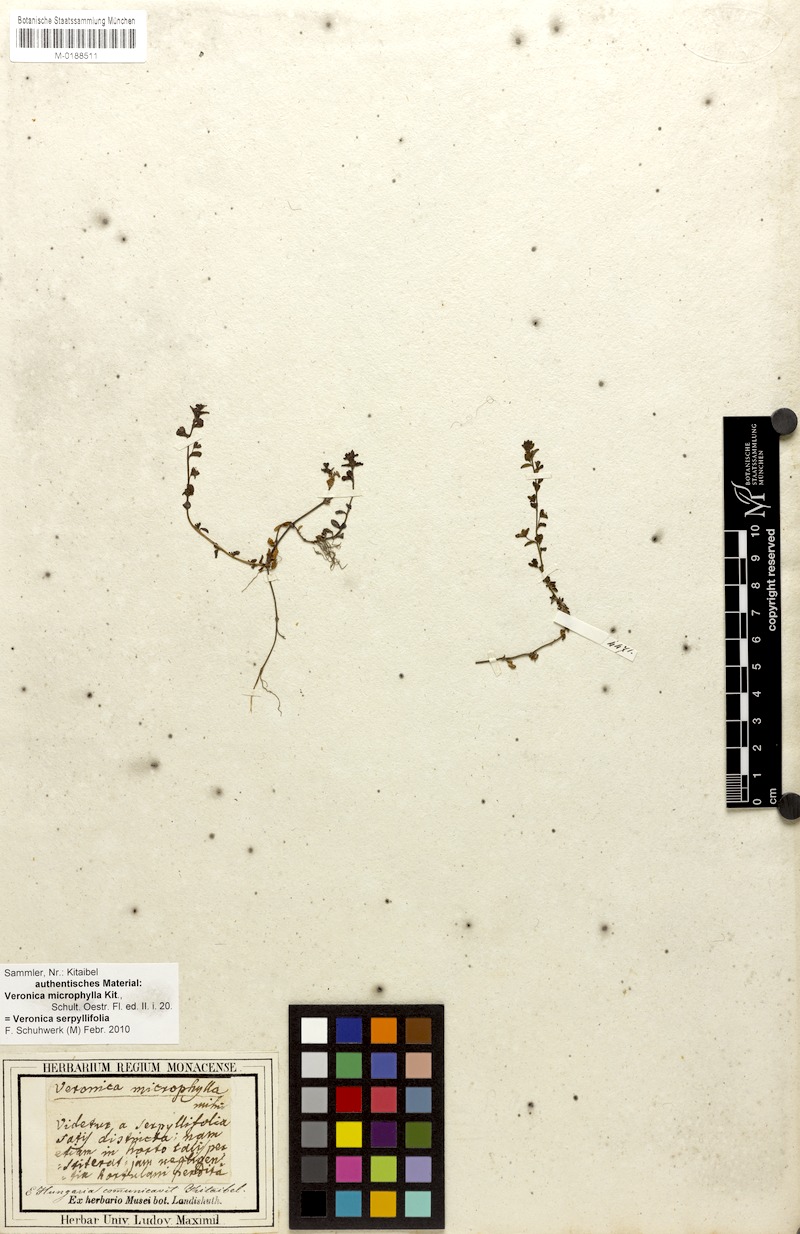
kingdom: Plantae
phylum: Tracheophyta
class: Magnoliopsida
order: Lamiales
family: Plantaginaceae
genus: Veronica
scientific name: Veronica serpyllifolia
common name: Thyme-leaved speedwell
